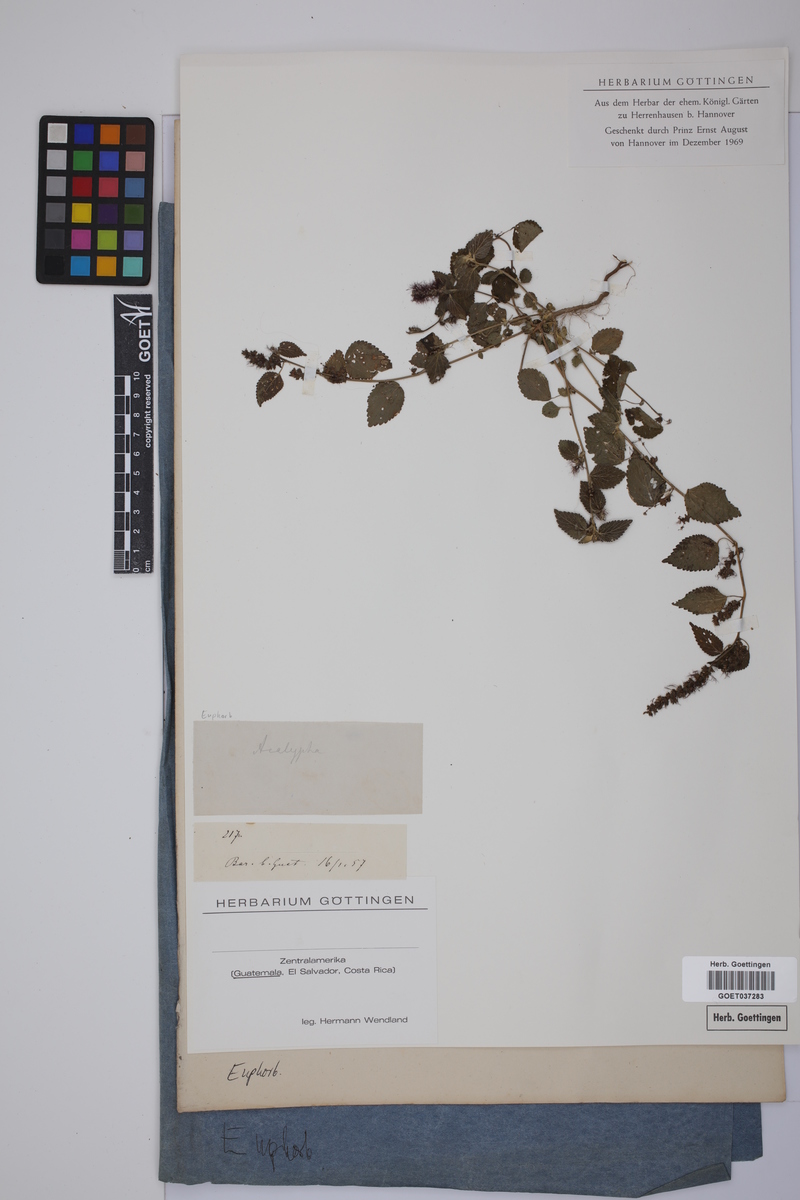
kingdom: Plantae
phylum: Tracheophyta
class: Magnoliopsida
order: Malpighiales
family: Euphorbiaceae
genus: Acalypha
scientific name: Acalypha
